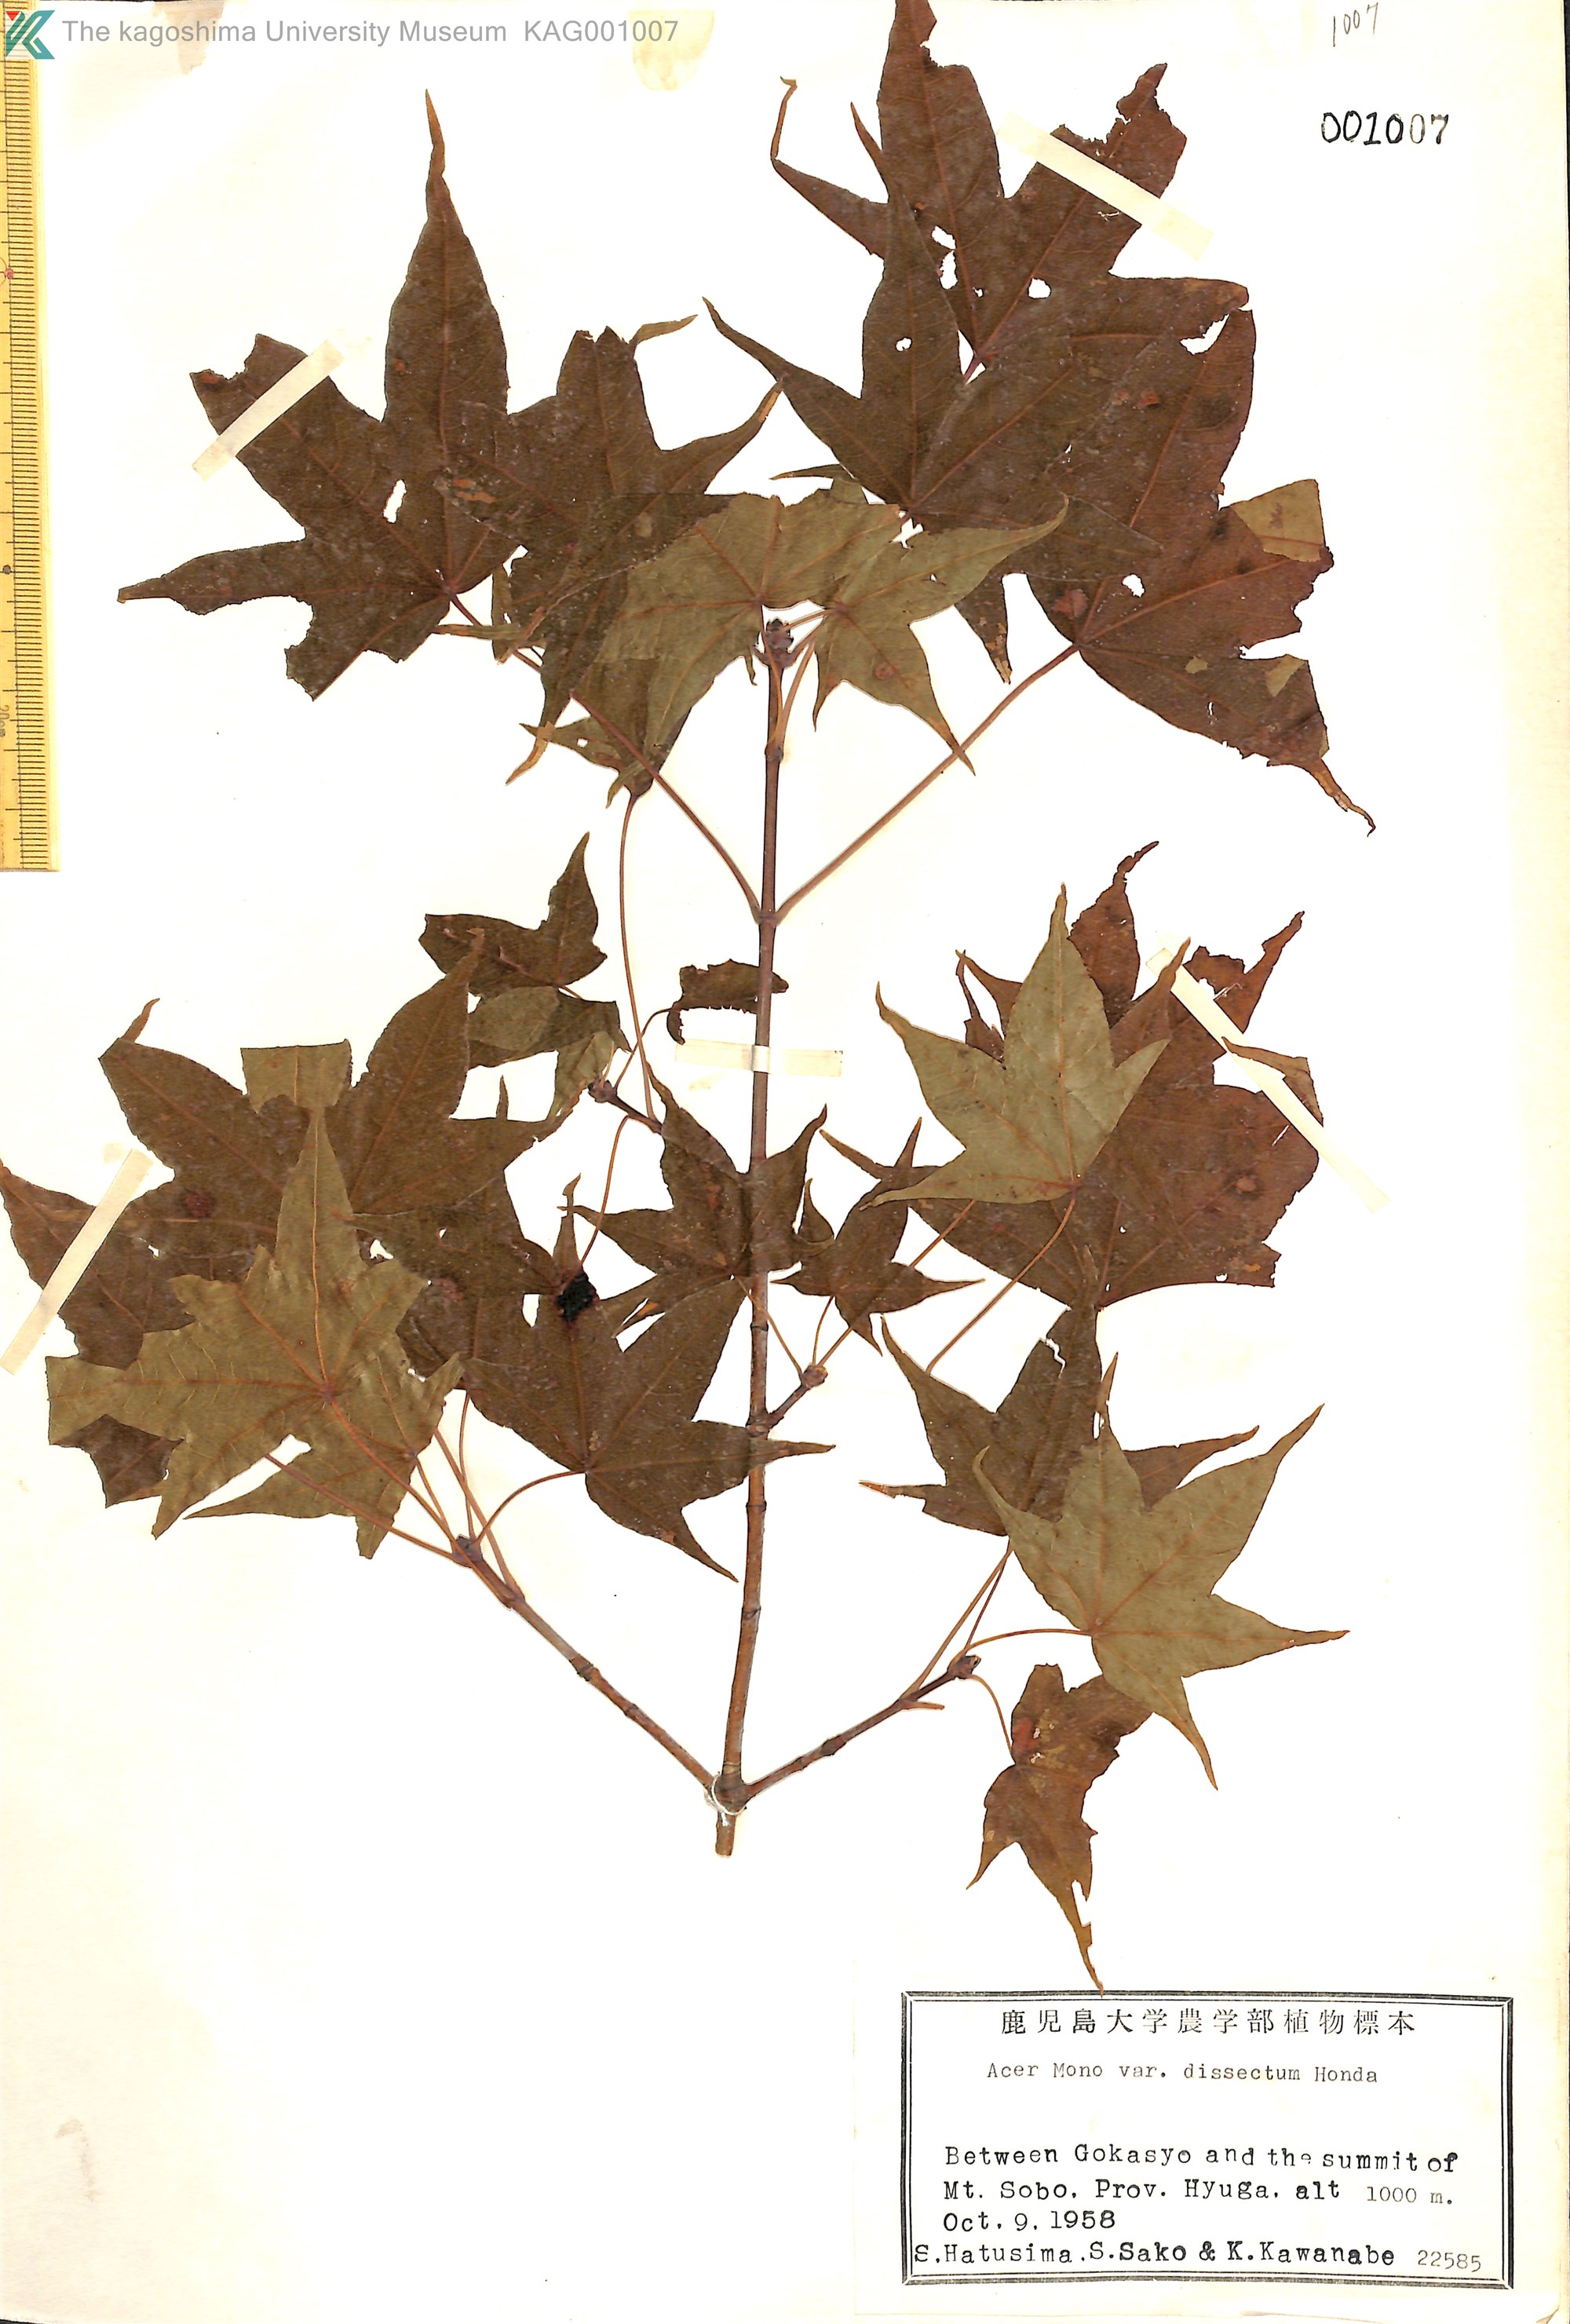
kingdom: Plantae
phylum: Tracheophyta
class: Magnoliopsida
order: Sapindales
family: Sapindaceae
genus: Acer
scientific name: Acer pictum
